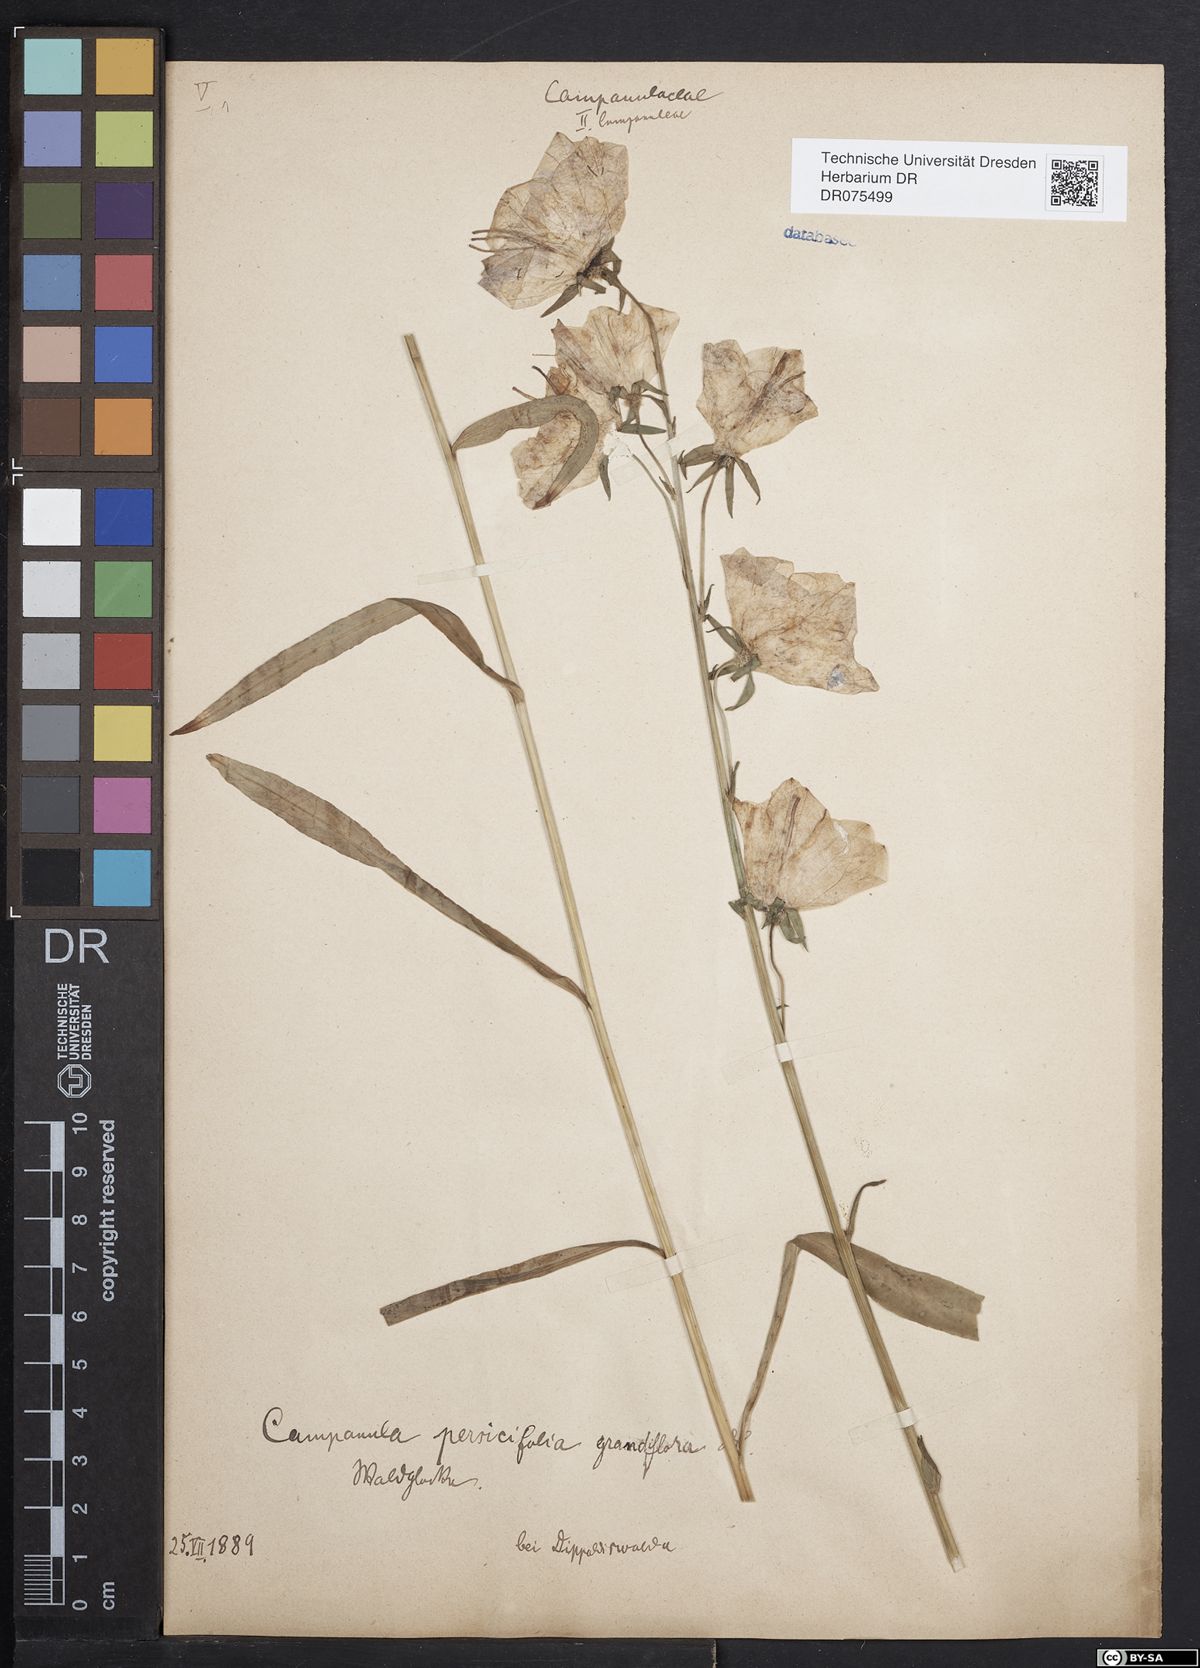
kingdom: Plantae
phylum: Tracheophyta
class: Magnoliopsida
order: Asterales
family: Campanulaceae
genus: Campanula
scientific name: Campanula persicifolia
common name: Peach-leaved bellflower
